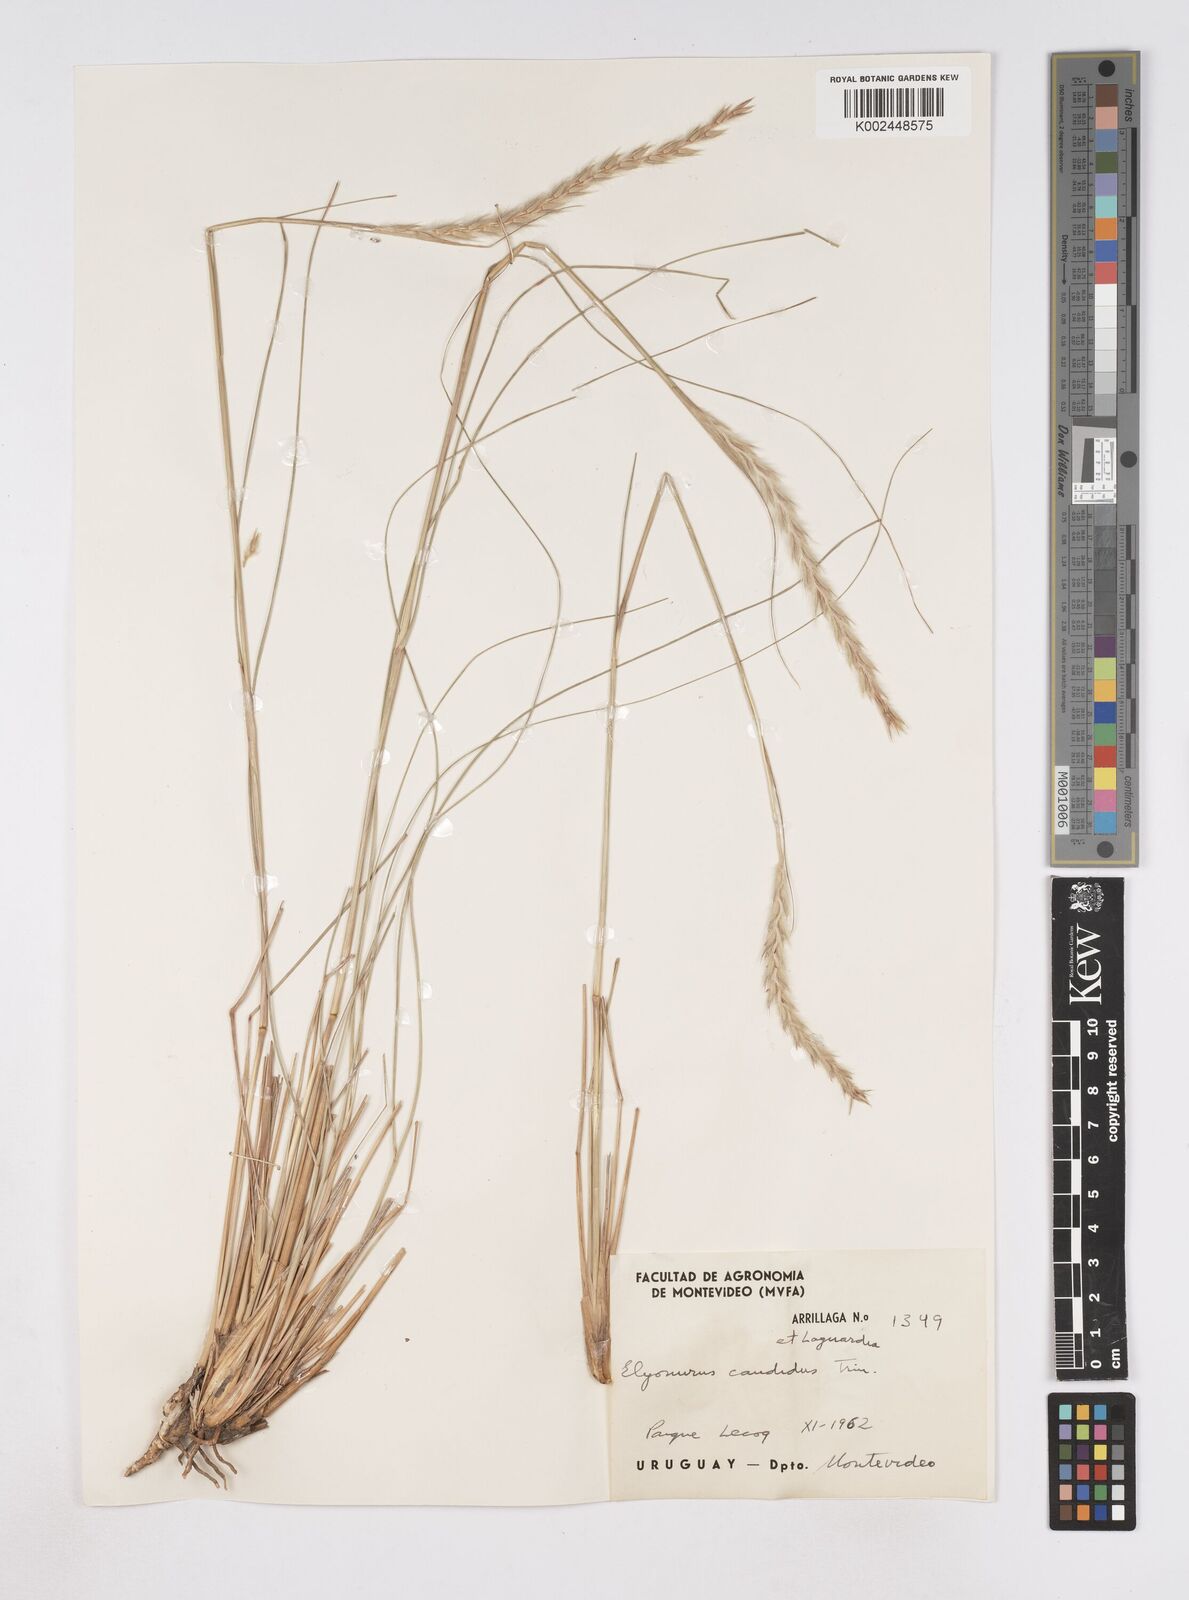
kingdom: Plantae
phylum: Tracheophyta
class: Liliopsida
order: Poales
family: Poaceae
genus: Elionurus
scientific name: Elionurus muticus
